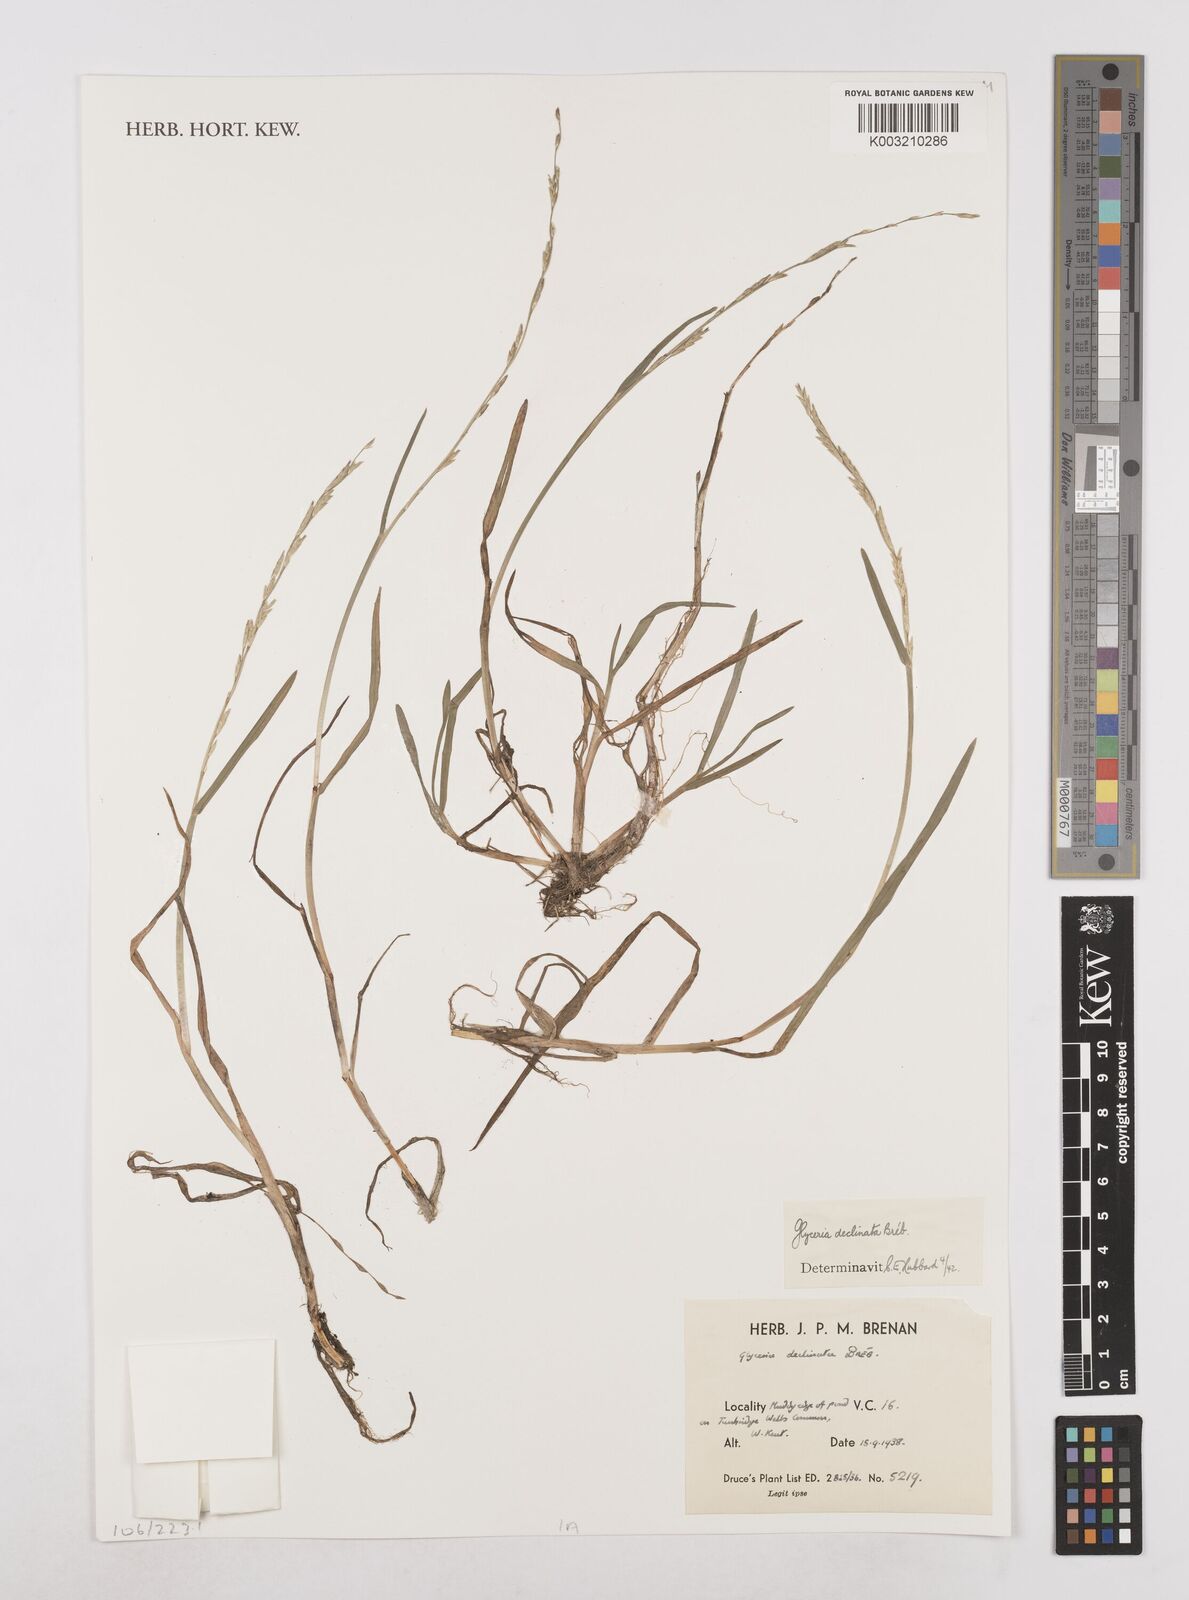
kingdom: Plantae
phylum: Tracheophyta
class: Liliopsida
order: Poales
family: Poaceae
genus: Glyceria
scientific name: Glyceria declinata
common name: Small sweet-grass
